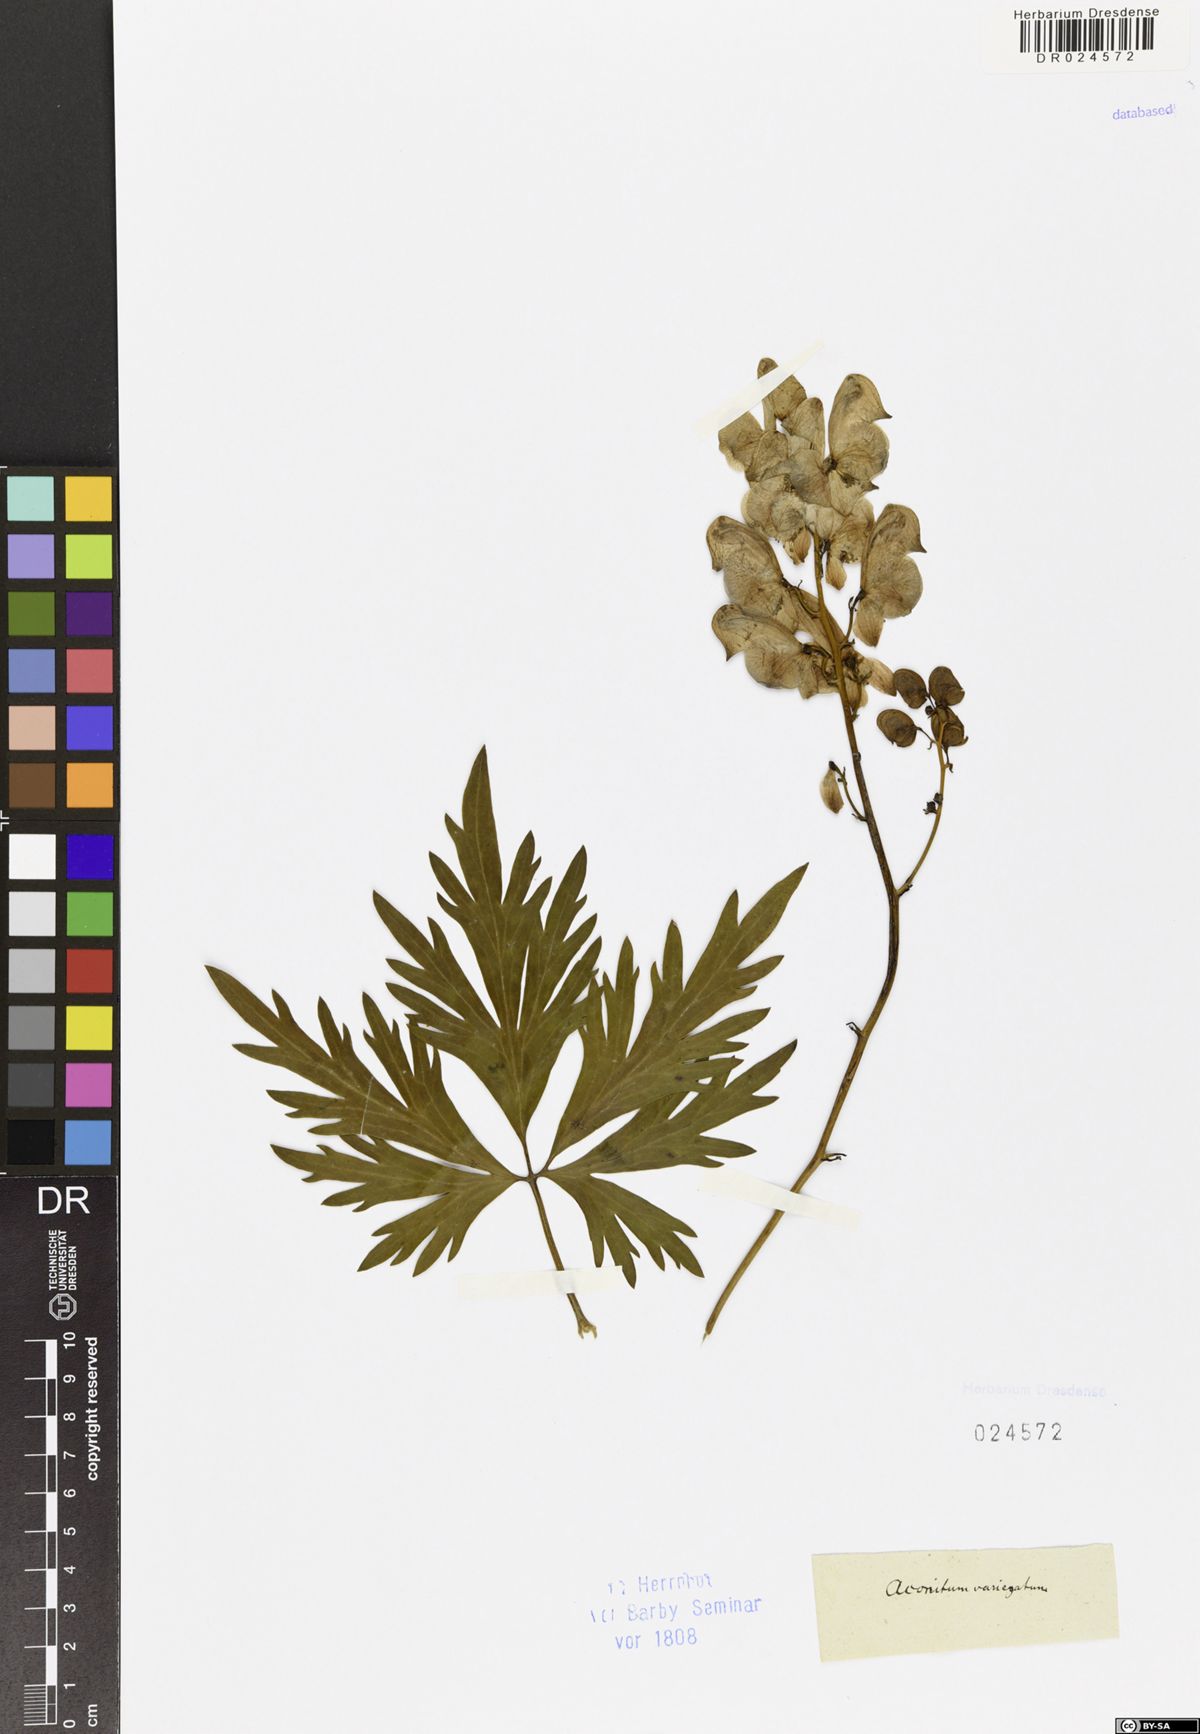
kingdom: Plantae
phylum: Tracheophyta
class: Magnoliopsida
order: Ranunculales
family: Ranunculaceae
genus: Aconitum
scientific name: Aconitum variegatum
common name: Manchurian monkshood
